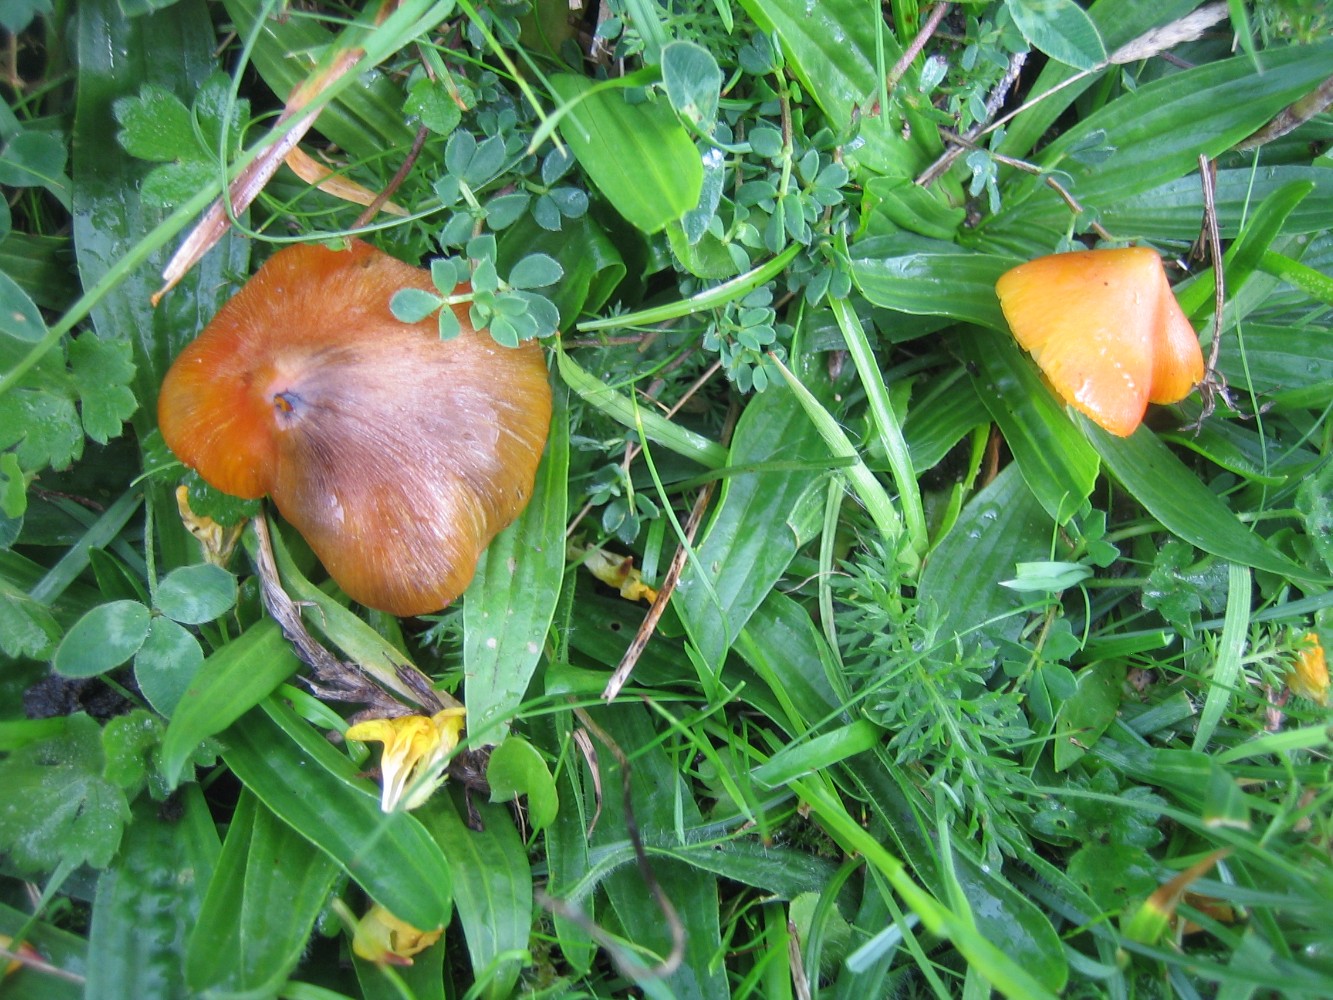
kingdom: Fungi
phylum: Basidiomycota
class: Agaricomycetes
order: Agaricales
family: Hygrophoraceae
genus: Hygrocybe
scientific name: Hygrocybe conica
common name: kegle-vokshat
